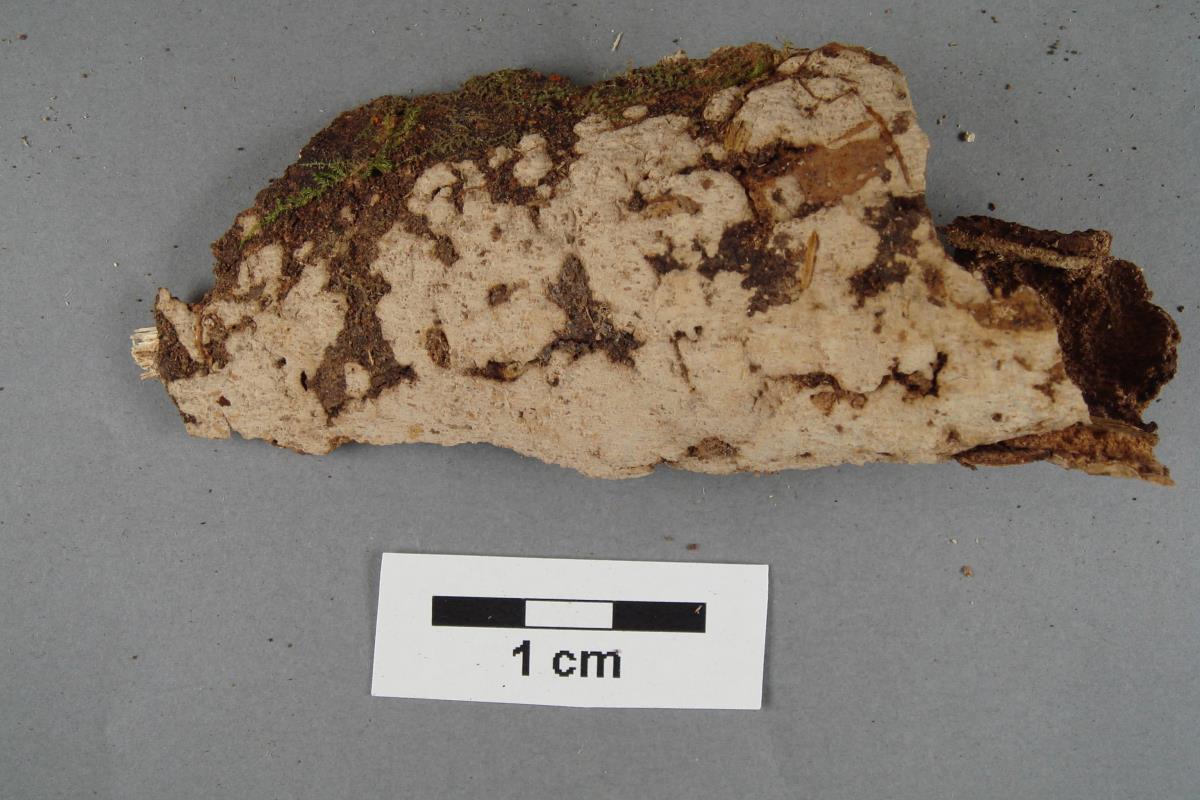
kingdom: Fungi
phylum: Basidiomycota
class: Agaricomycetes
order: Russulales
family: Peniophoraceae
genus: Dichostereum
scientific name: Dichostereum rhodosporum
